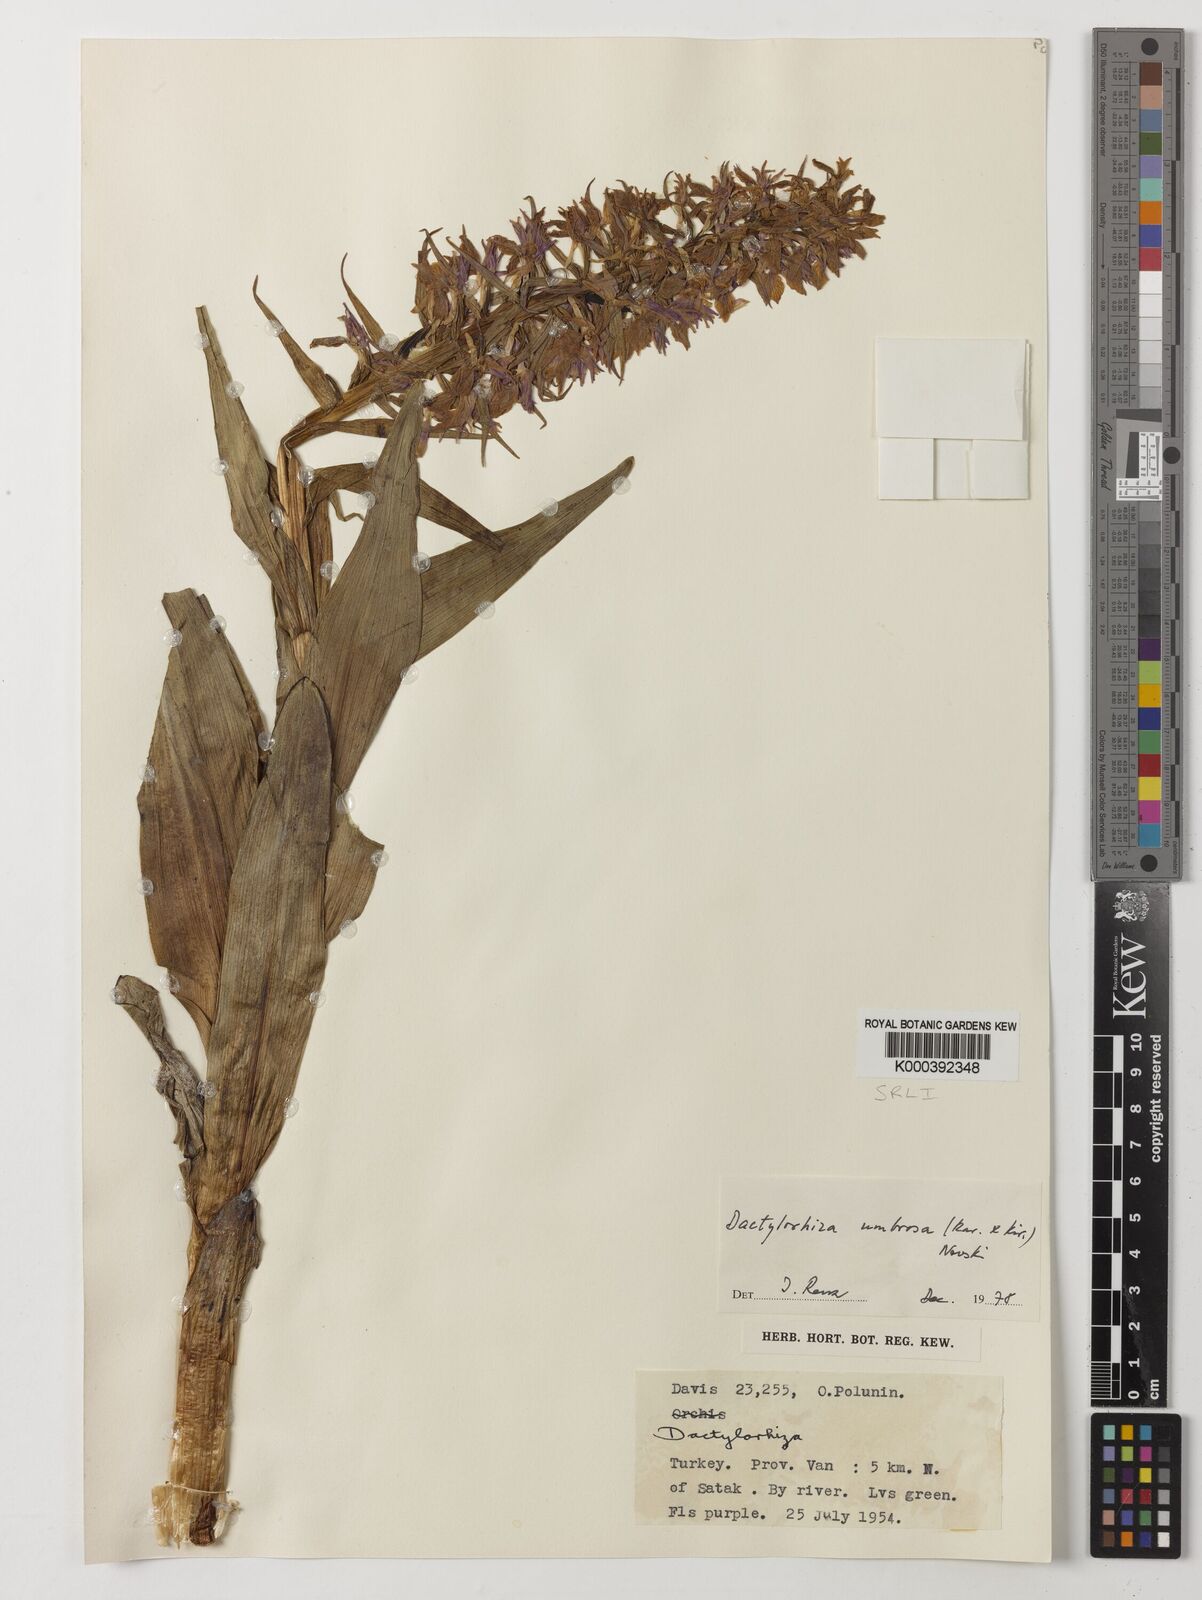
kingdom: Plantae
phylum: Tracheophyta
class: Liliopsida
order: Asparagales
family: Orchidaceae
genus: Dactylorhiza
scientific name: Dactylorhiza
